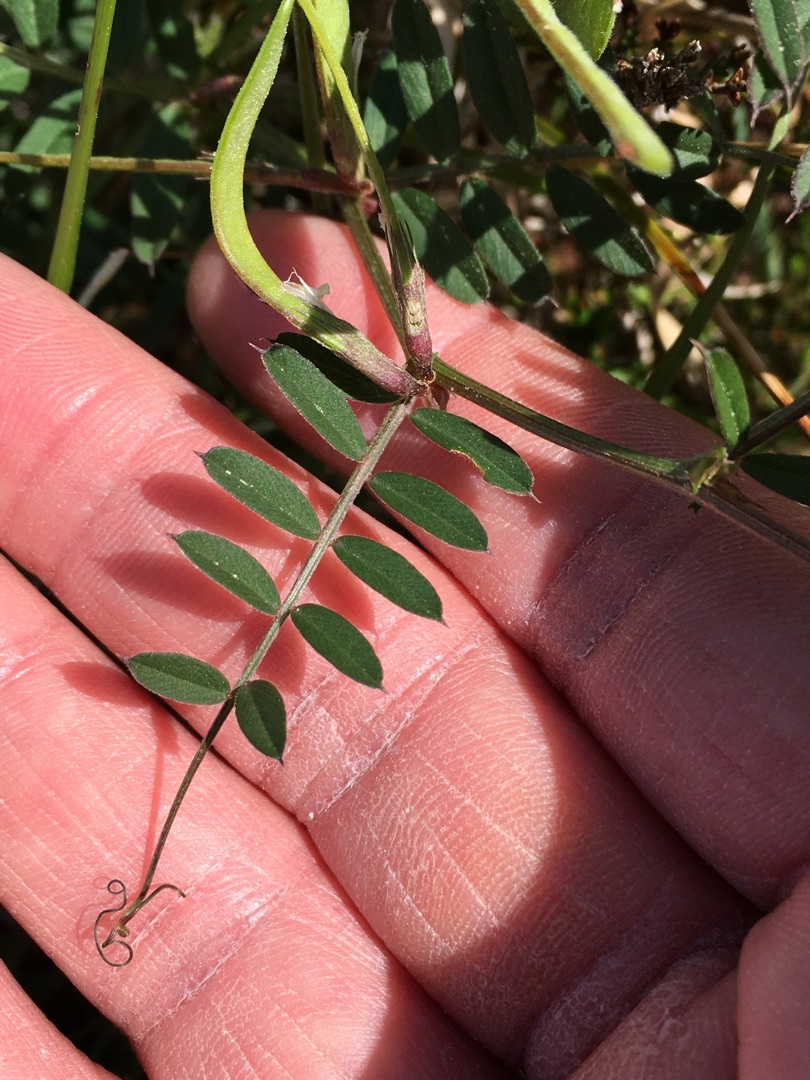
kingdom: Plantae
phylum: Tracheophyta
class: Magnoliopsida
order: Fabales
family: Fabaceae
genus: Vicia
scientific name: Vicia sativa
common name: Smalbladet vikke
